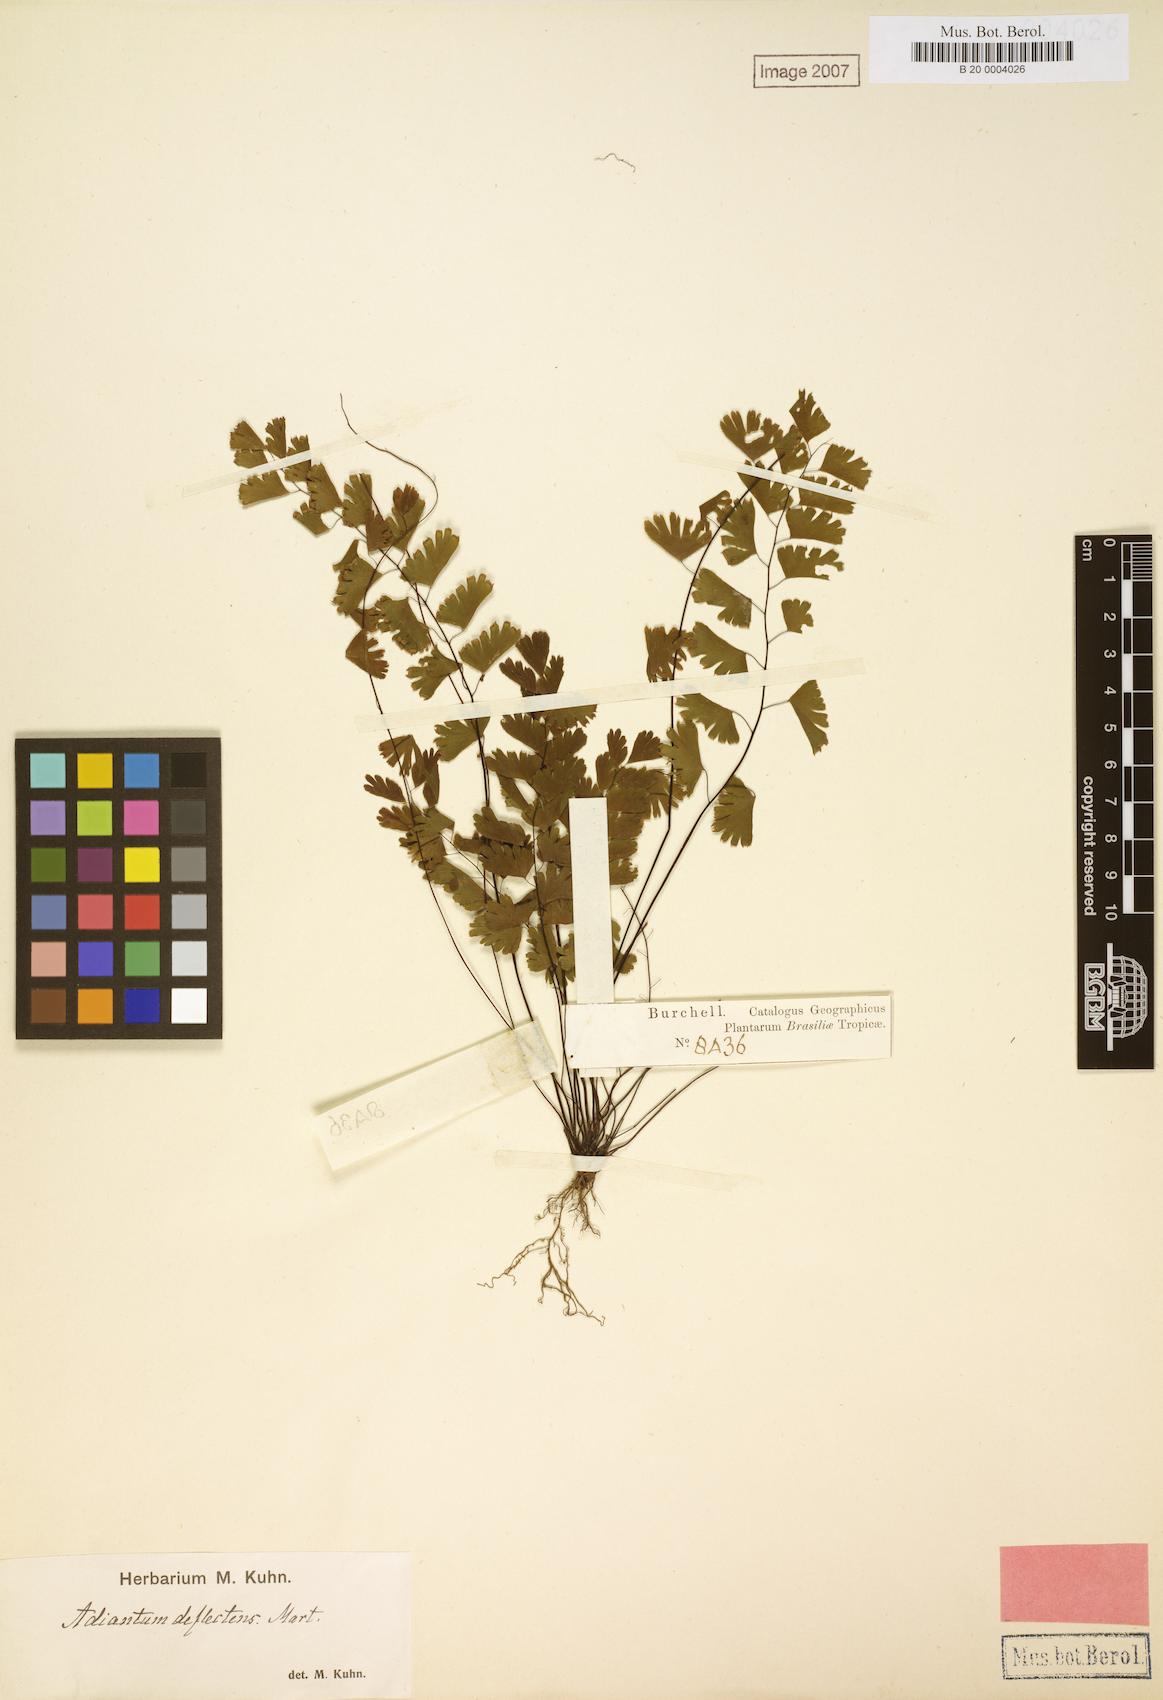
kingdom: Plantae
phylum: Tracheophyta
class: Polypodiopsida
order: Polypodiales
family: Pteridaceae
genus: Adiantum
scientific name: Adiantum deflectens
